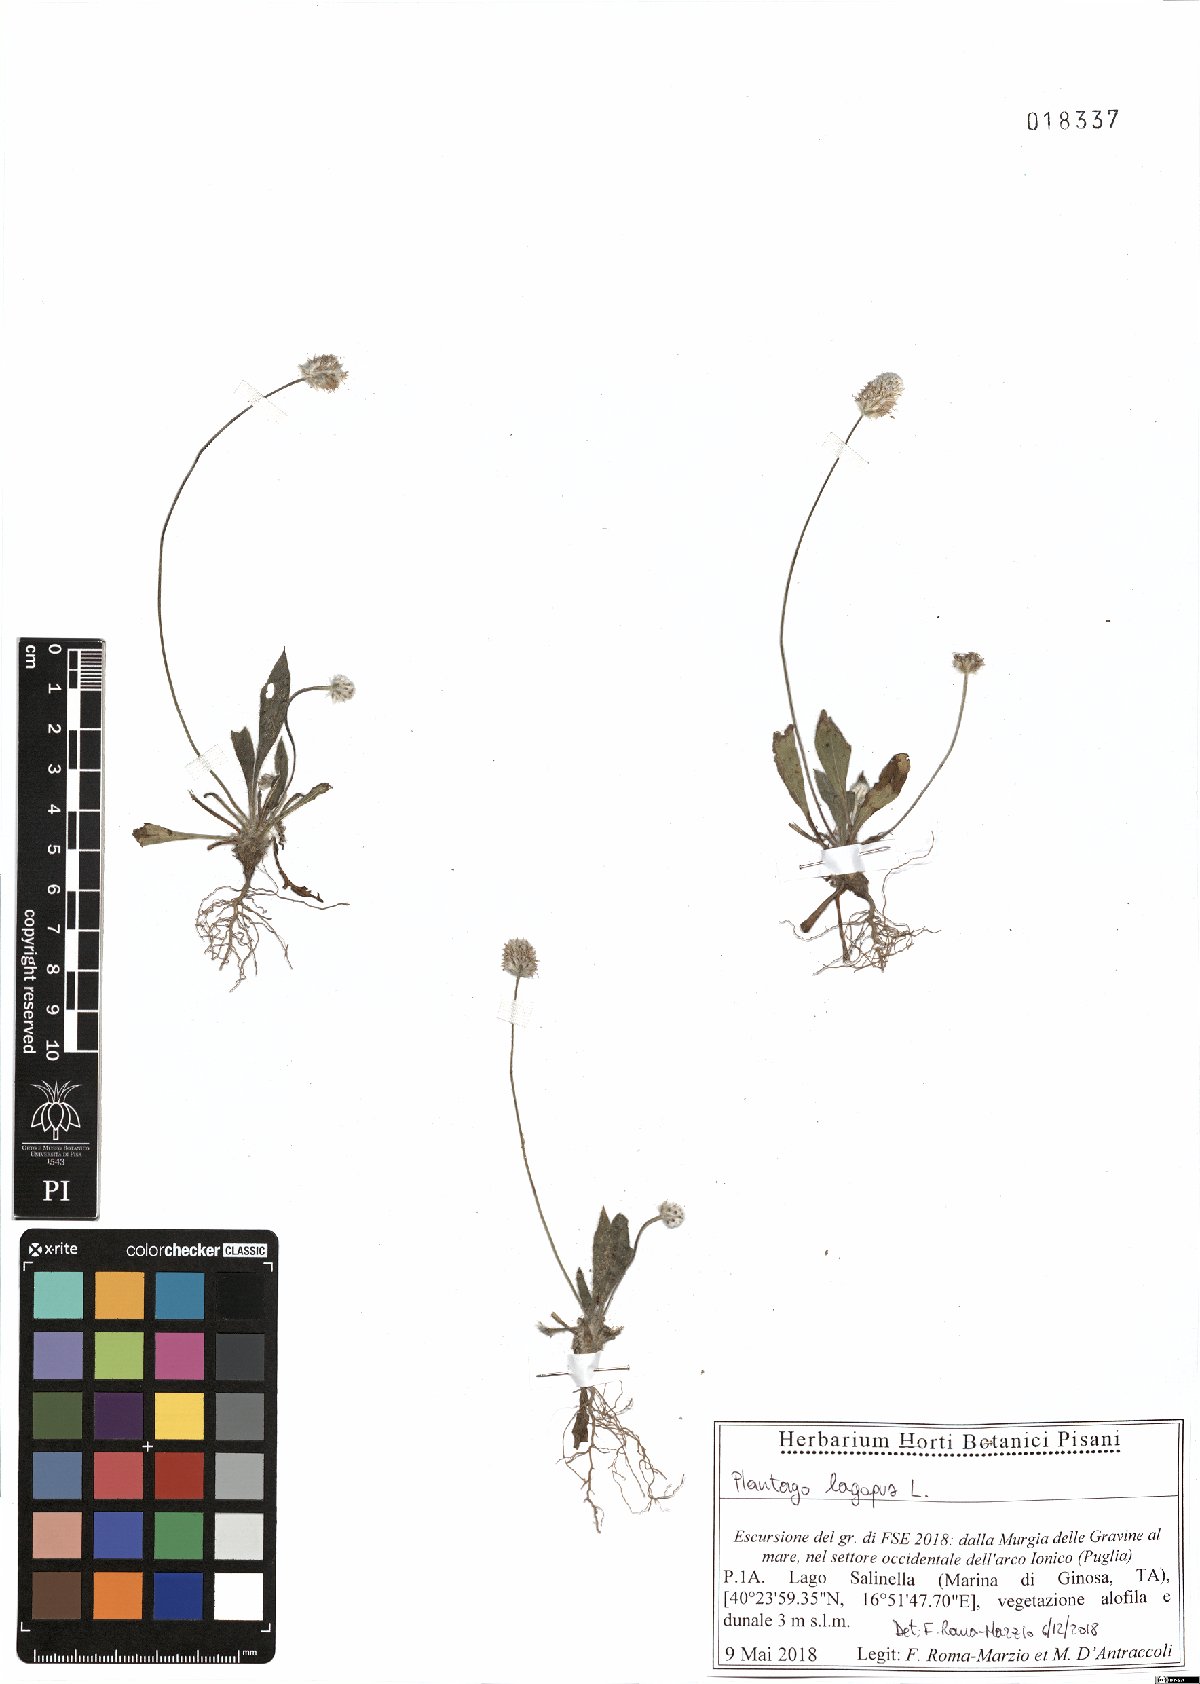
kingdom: Plantae
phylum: Tracheophyta
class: Magnoliopsida
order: Lamiales
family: Plantaginaceae
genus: Plantago
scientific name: Plantago lagopus
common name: Hare-foot plantain
